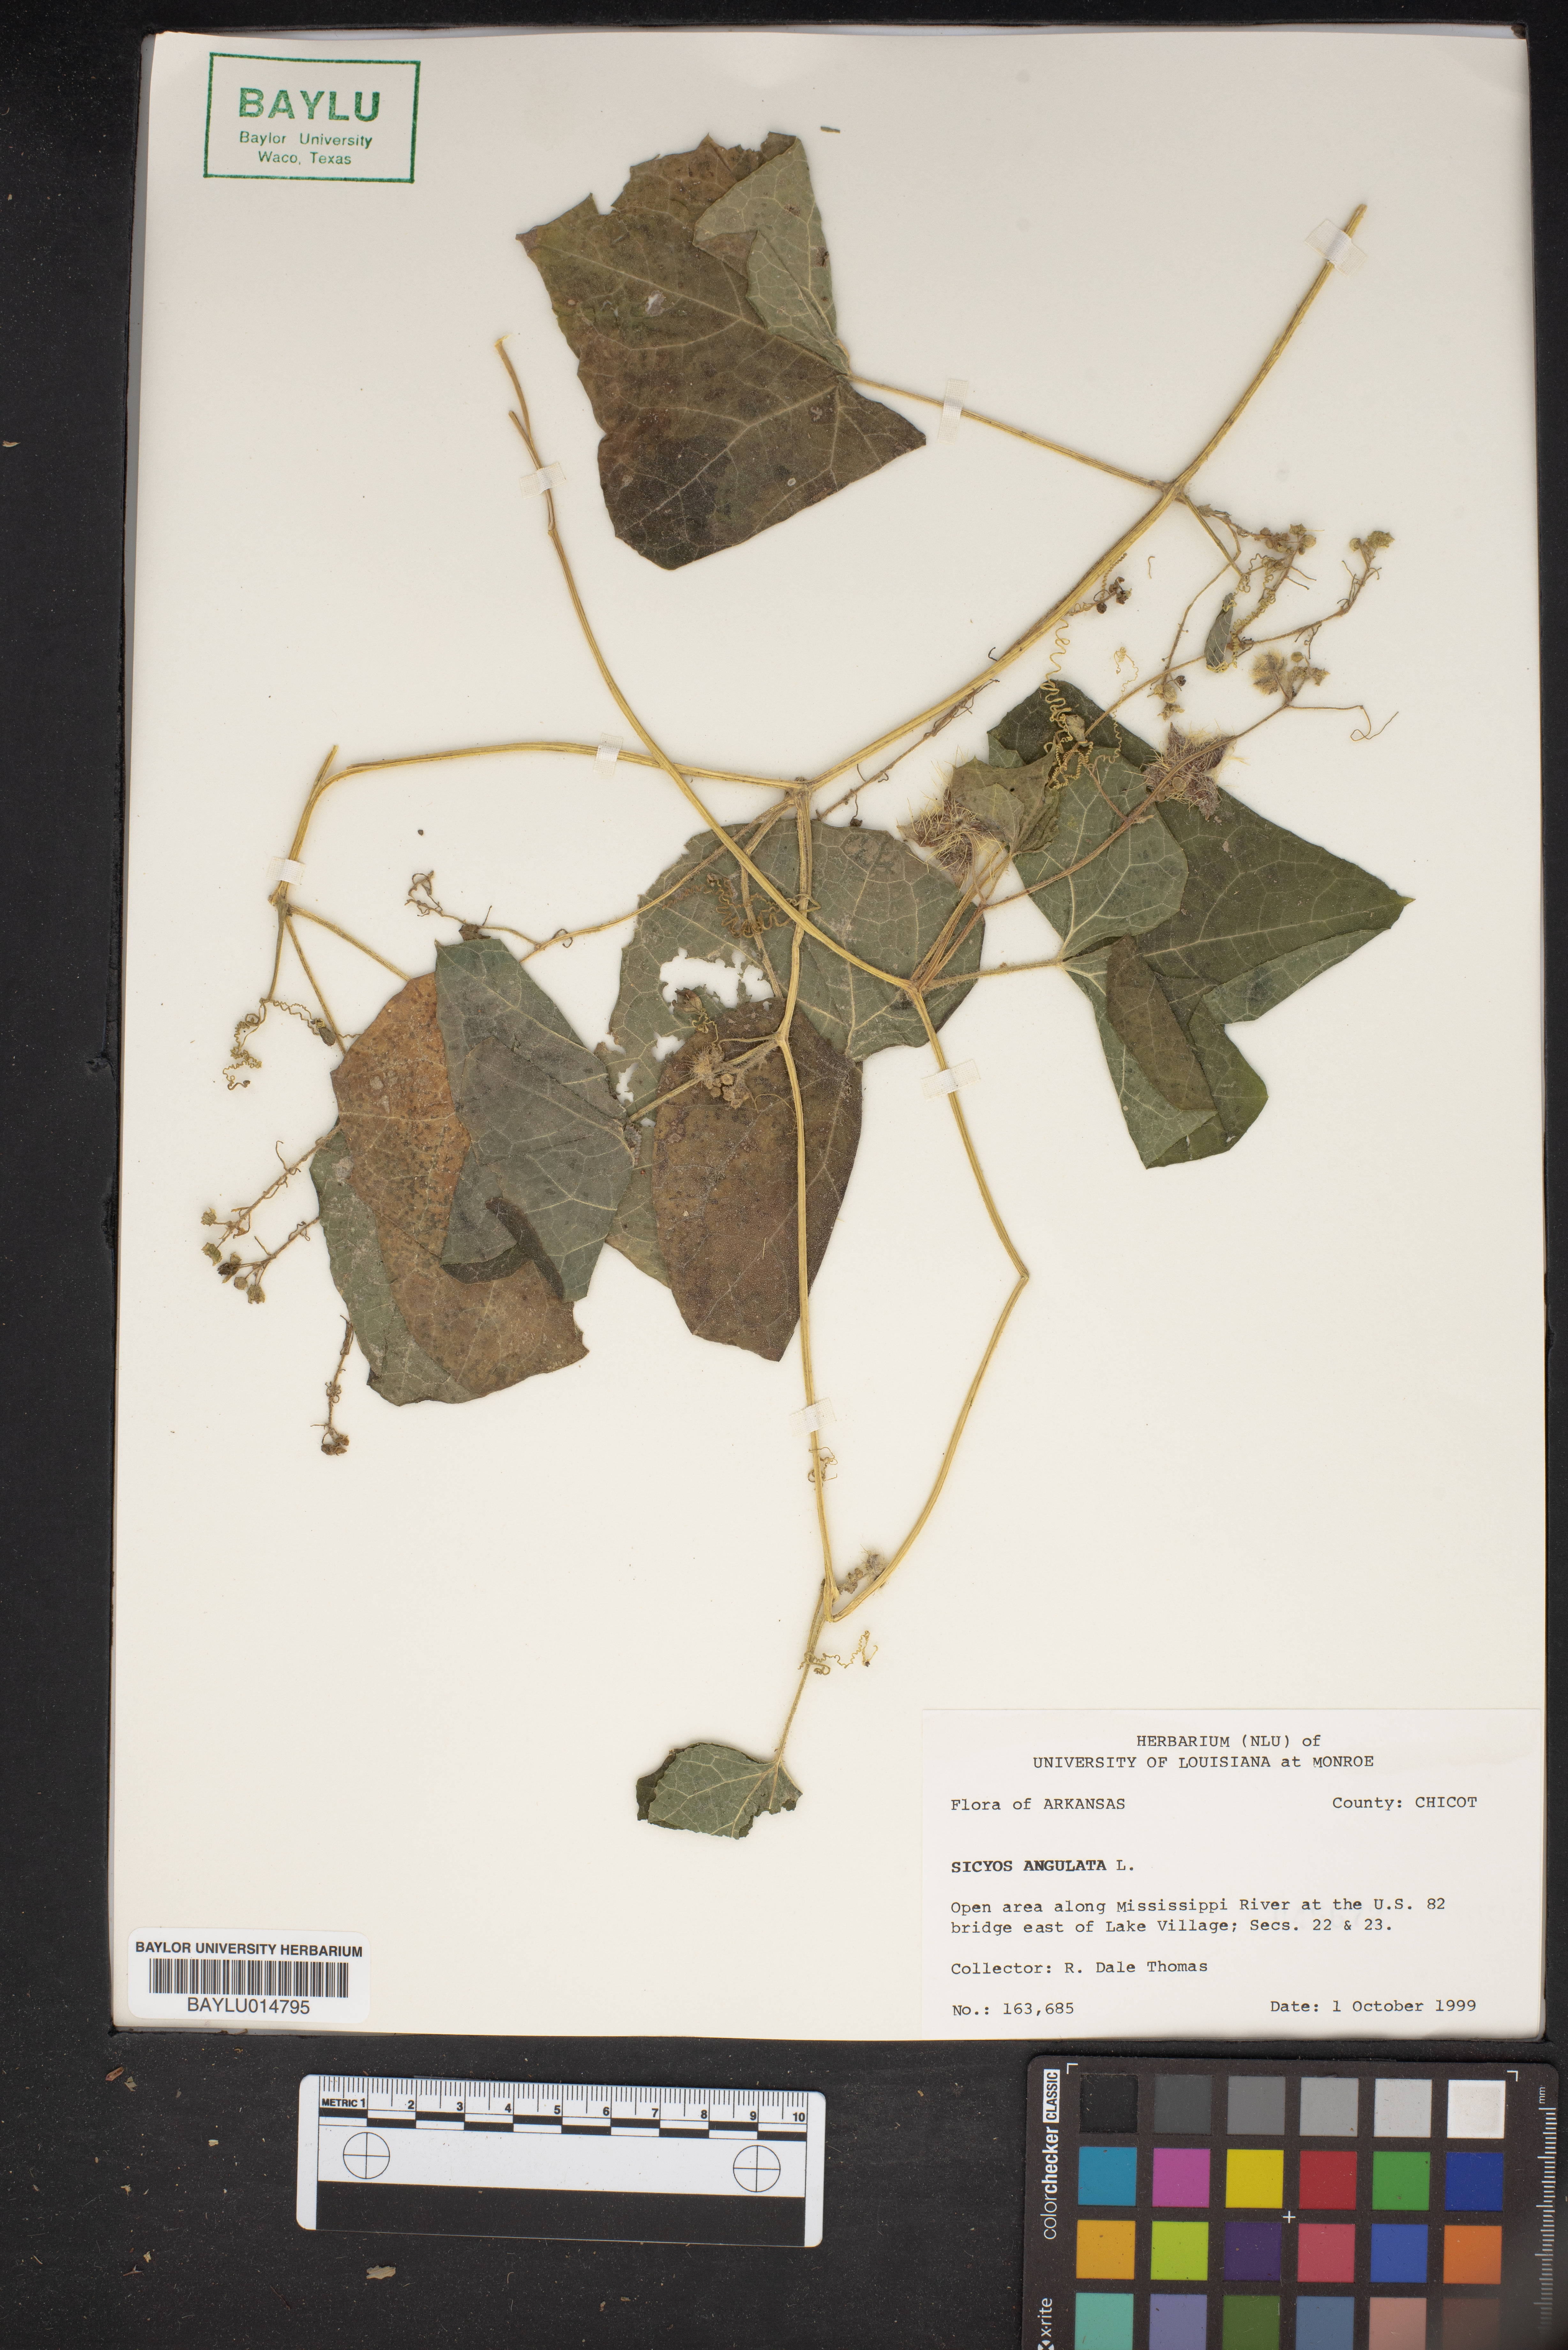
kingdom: Plantae
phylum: Tracheophyta
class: Magnoliopsida
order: Cucurbitales
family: Cucurbitaceae
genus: Sicyos
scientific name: Sicyos angulatus
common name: Angled burr cucumber
